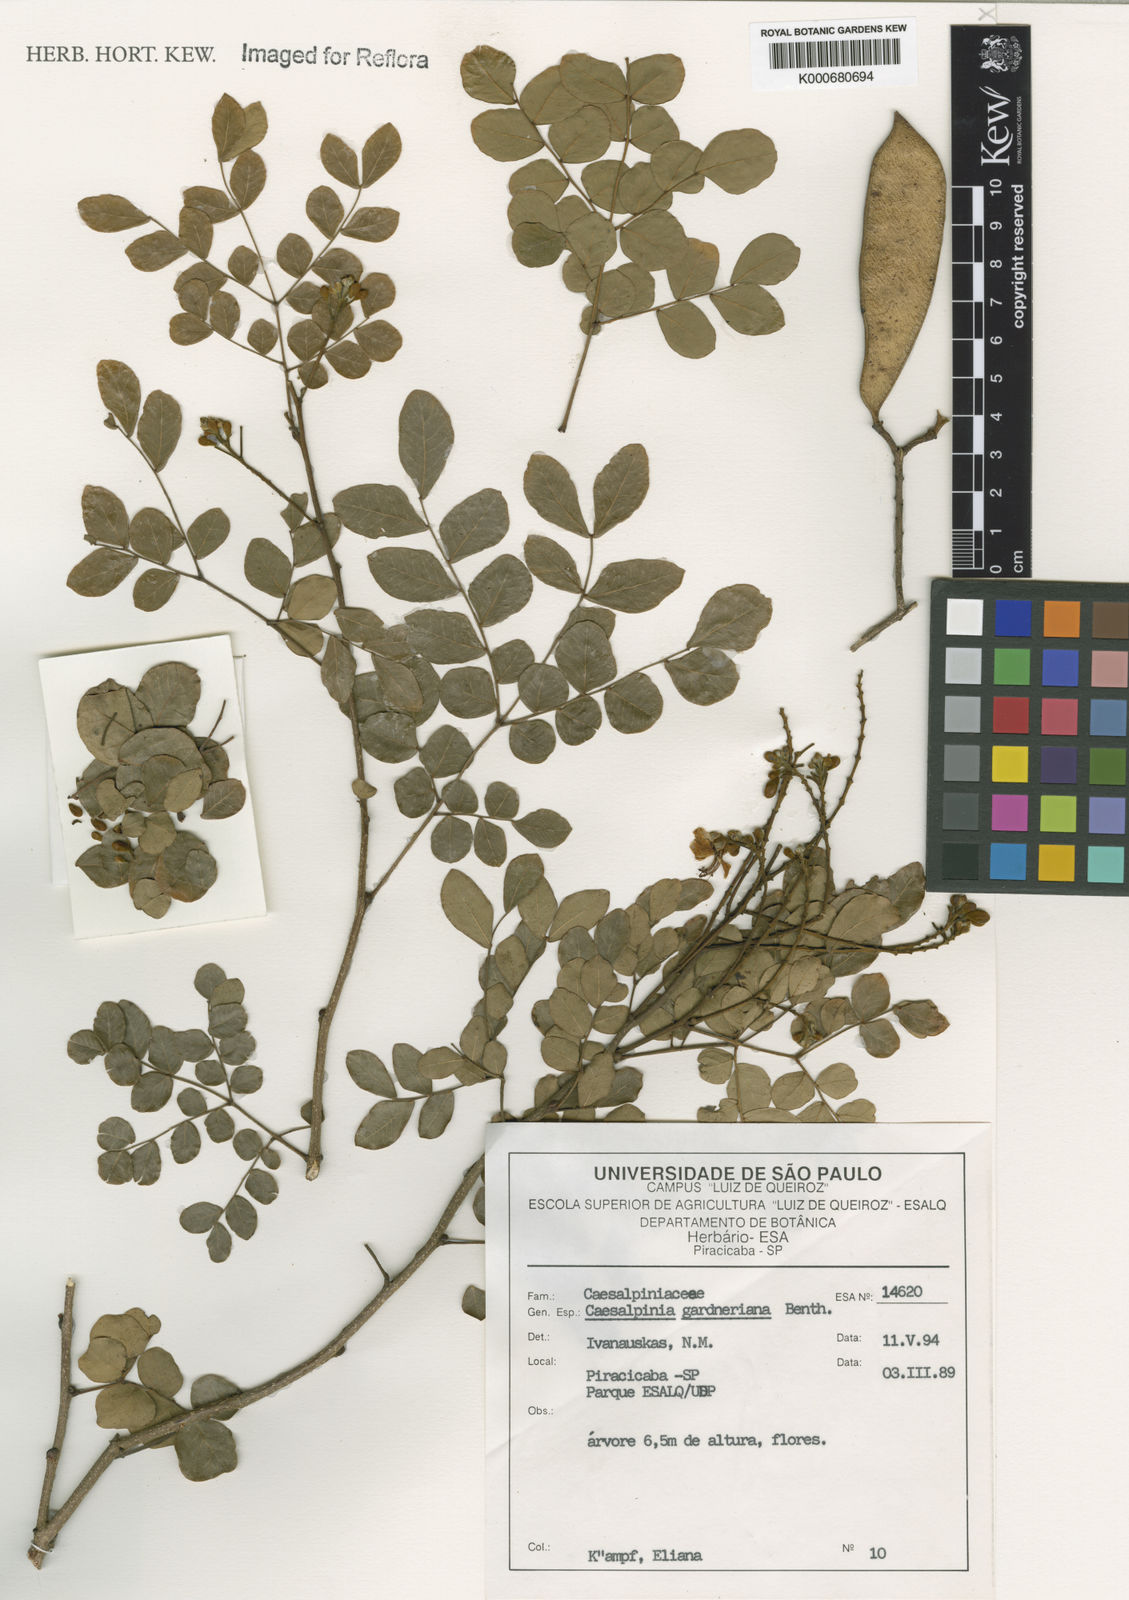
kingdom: Plantae
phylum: Tracheophyta
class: Magnoliopsida
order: Fabales
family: Fabaceae
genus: Cenostigma
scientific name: Cenostigma nordestinum
